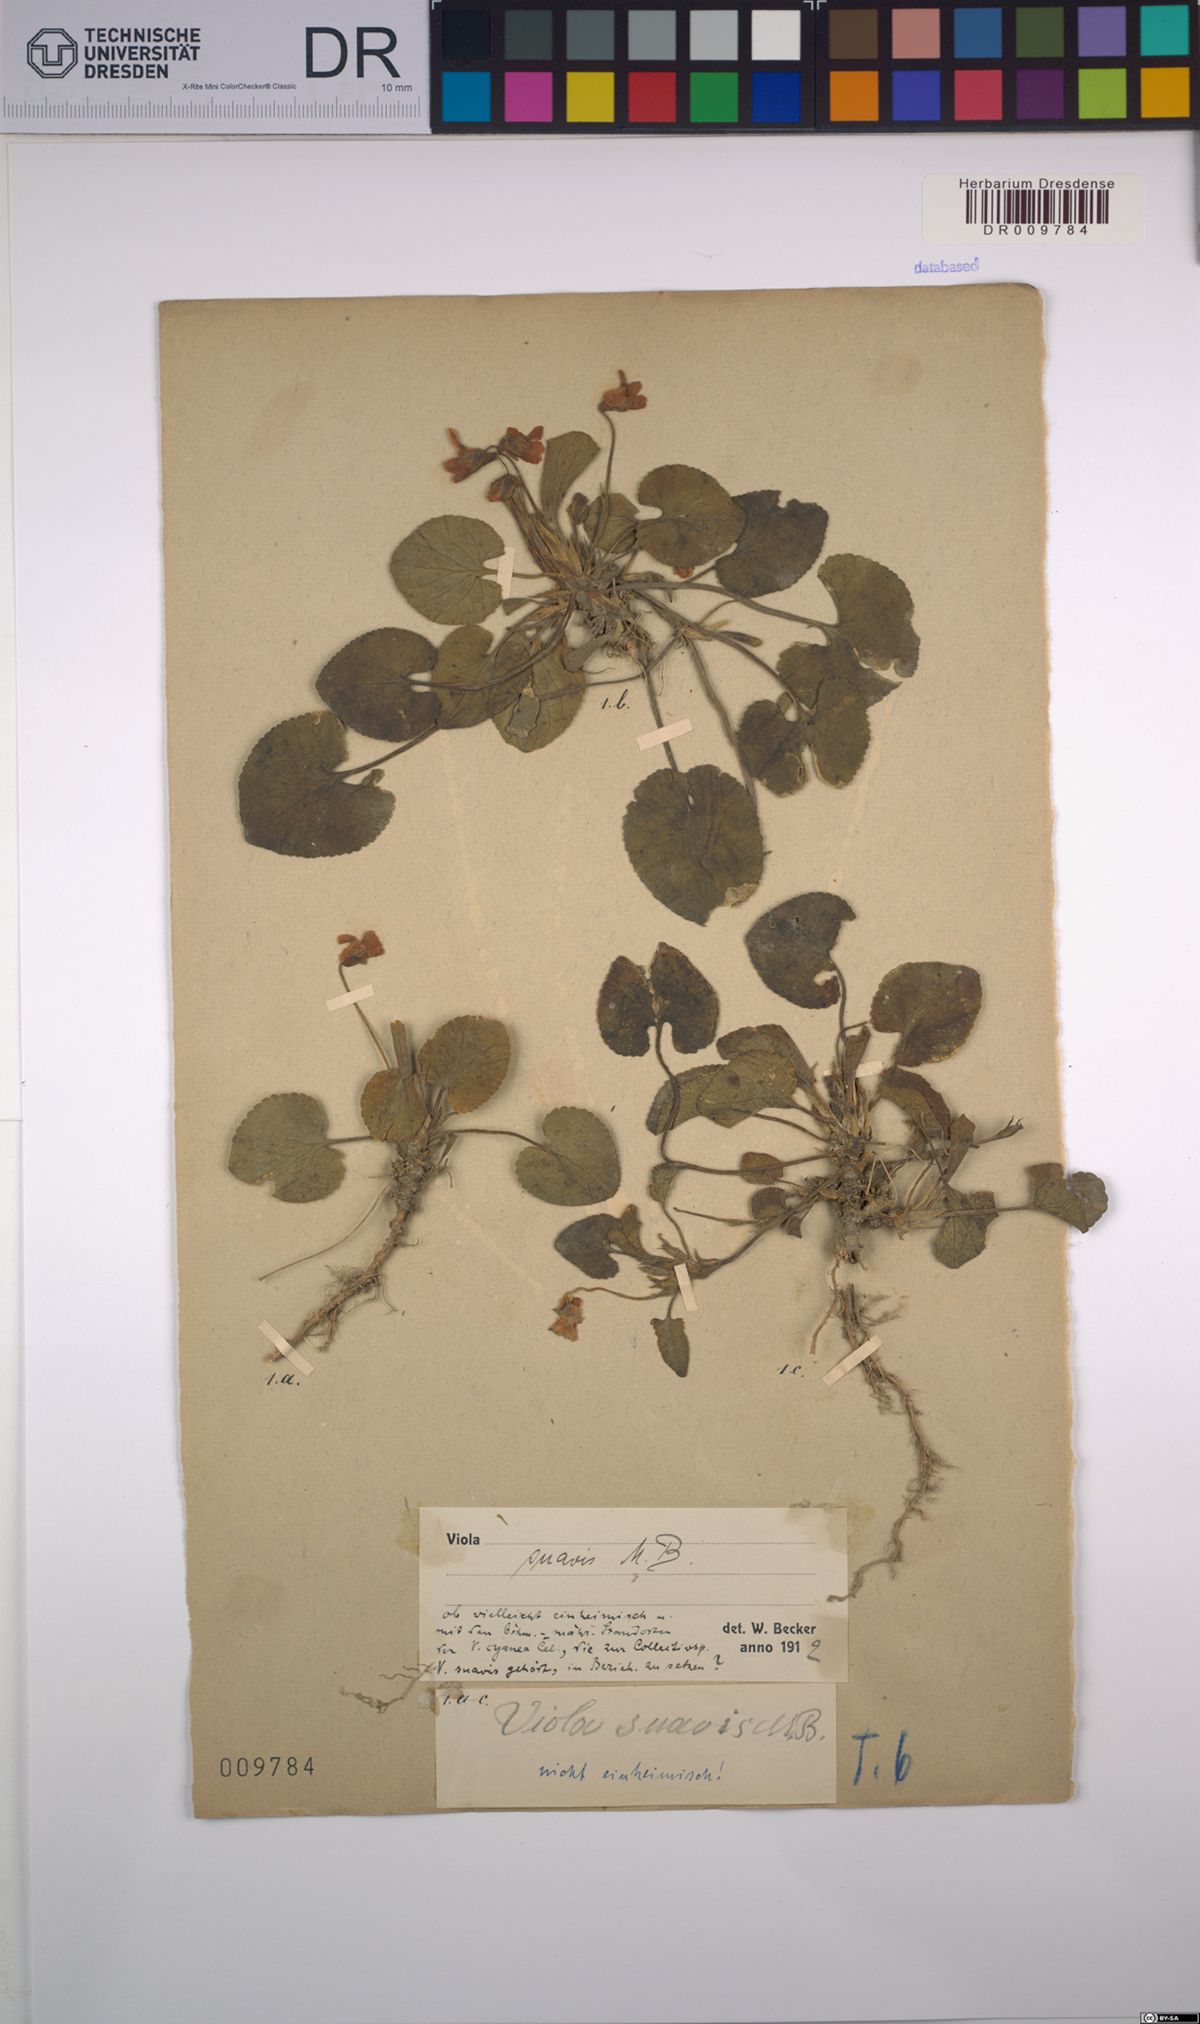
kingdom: Plantae
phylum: Tracheophyta
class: Magnoliopsida
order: Malpighiales
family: Violaceae
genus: Viola
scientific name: Viola suavis
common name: Russian violet
